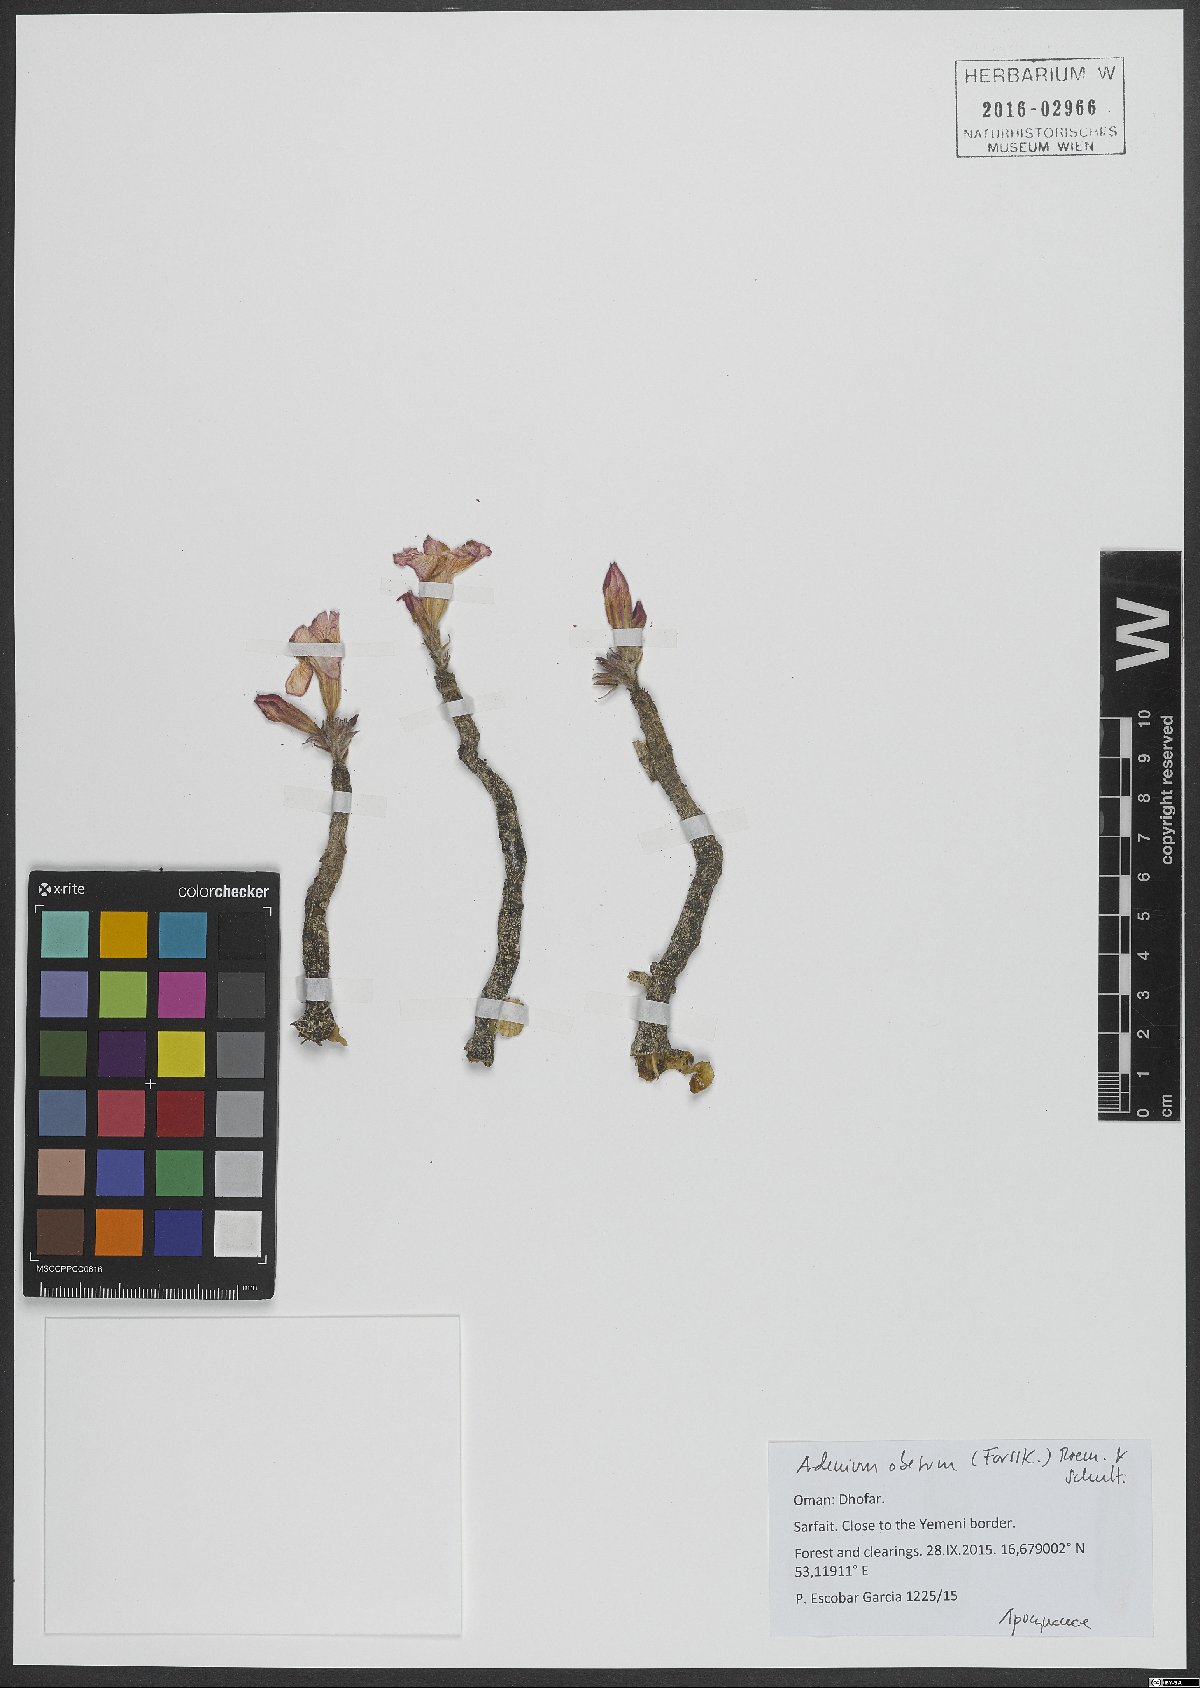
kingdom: Plantae
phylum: Tracheophyta
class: Magnoliopsida
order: Gentianales
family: Apocynaceae
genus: Adenium
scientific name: Adenium obesum
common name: Desert-rose
